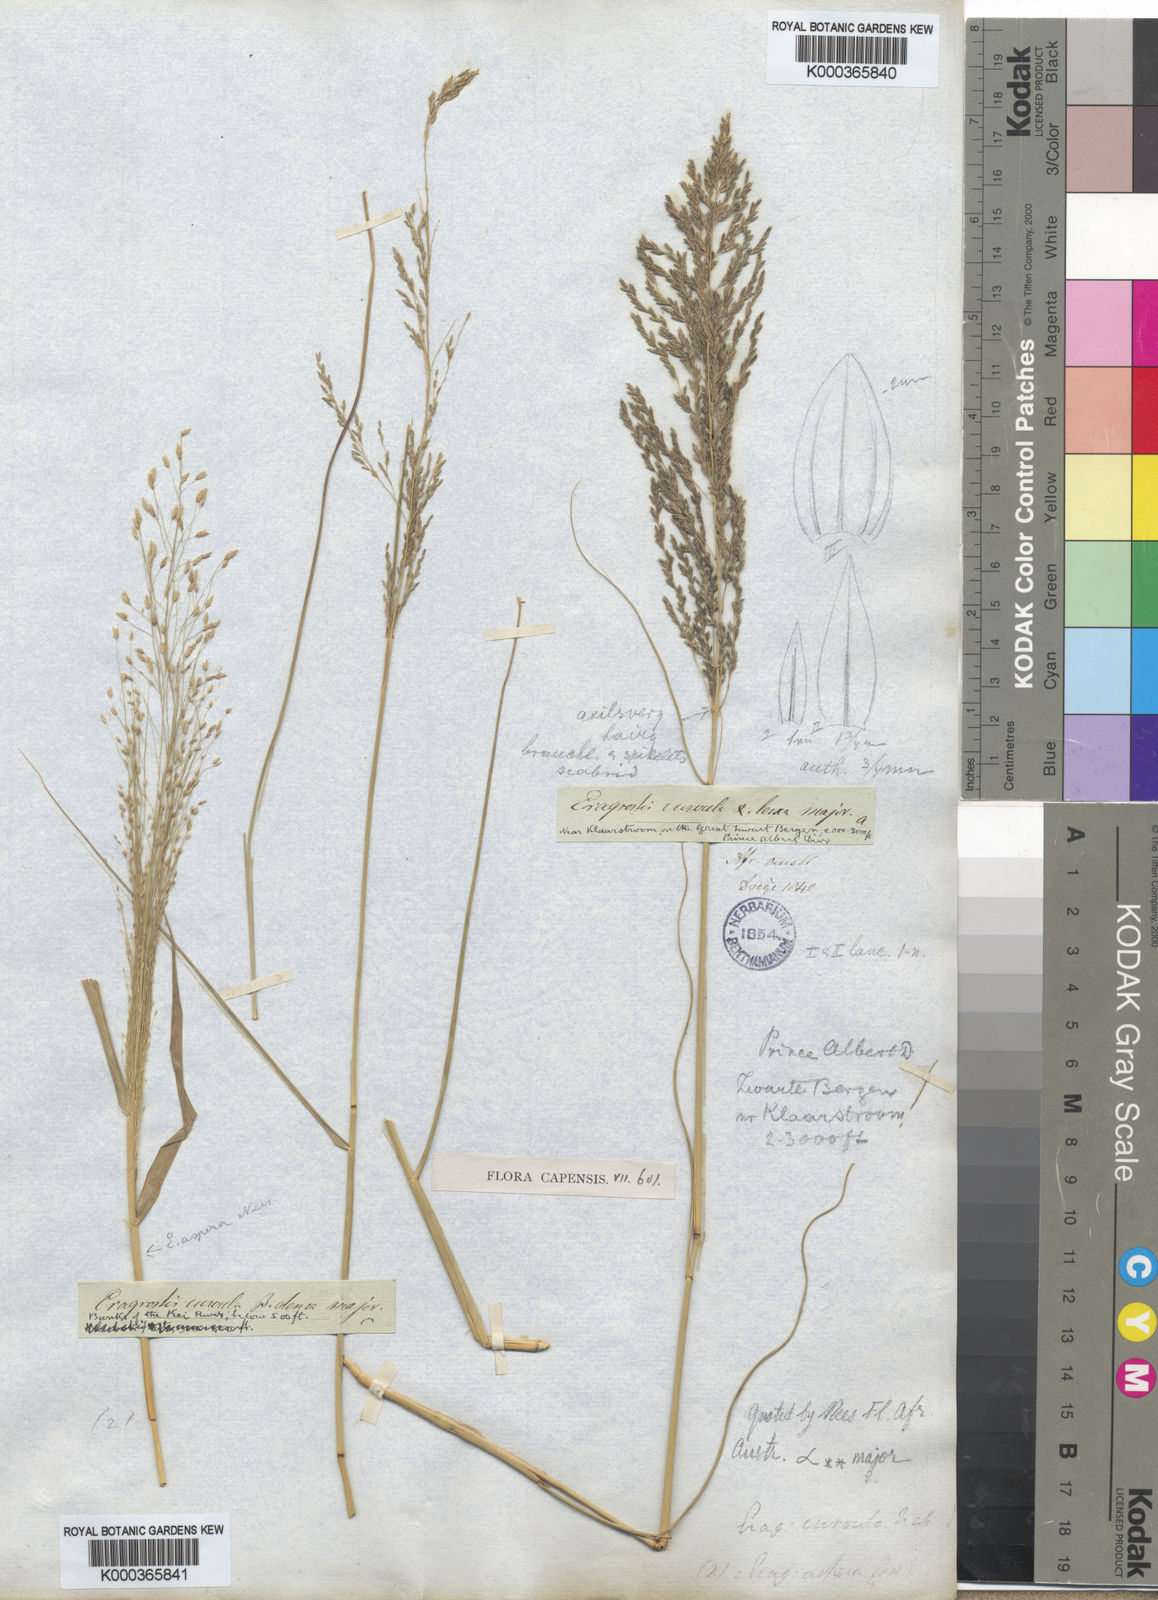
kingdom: Plantae
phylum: Tracheophyta
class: Liliopsida
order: Poales
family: Poaceae
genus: Eragrostis
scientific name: Eragrostis curvula
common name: African love-grass
